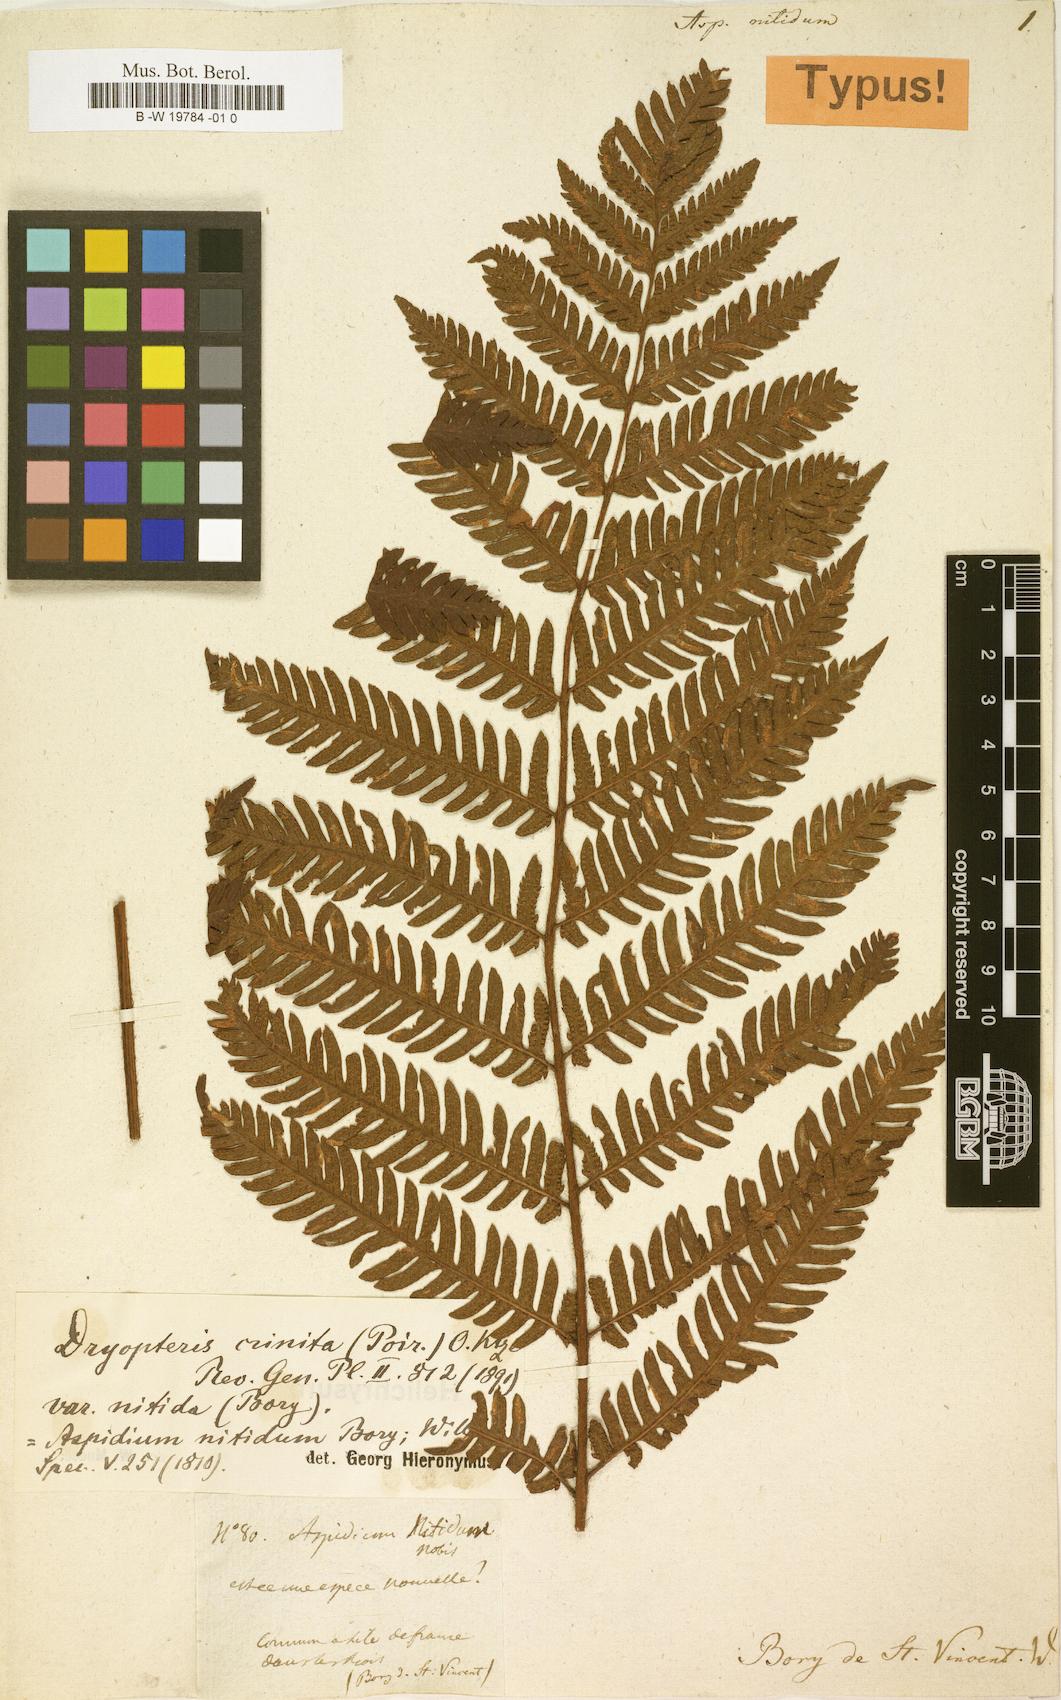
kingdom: Plantae
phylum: Tracheophyta
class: Polypodiopsida
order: Polypodiales
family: Dryopteridaceae
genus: Ctenitis
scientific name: Ctenitis crinita
